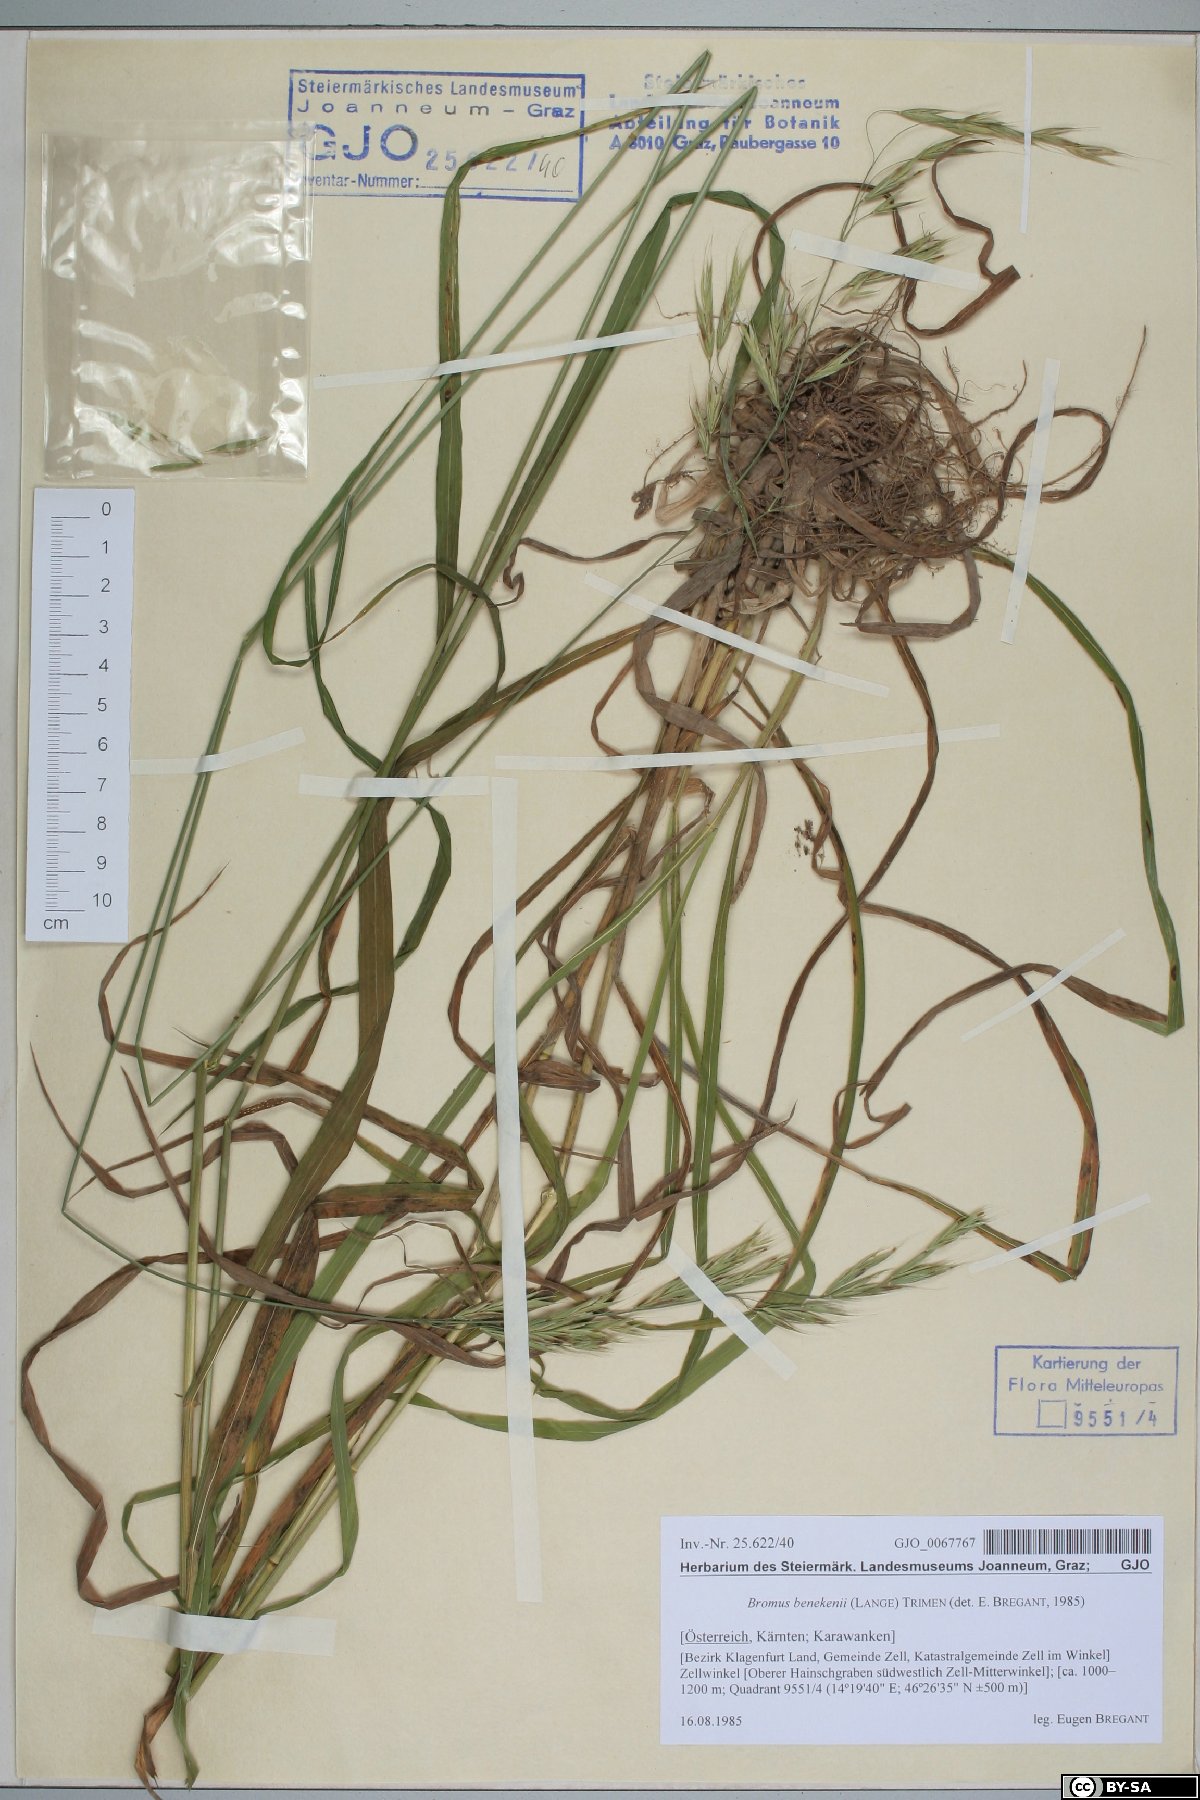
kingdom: Plantae
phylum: Tracheophyta
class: Liliopsida
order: Poales
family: Poaceae
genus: Bromus
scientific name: Bromus benekenii
